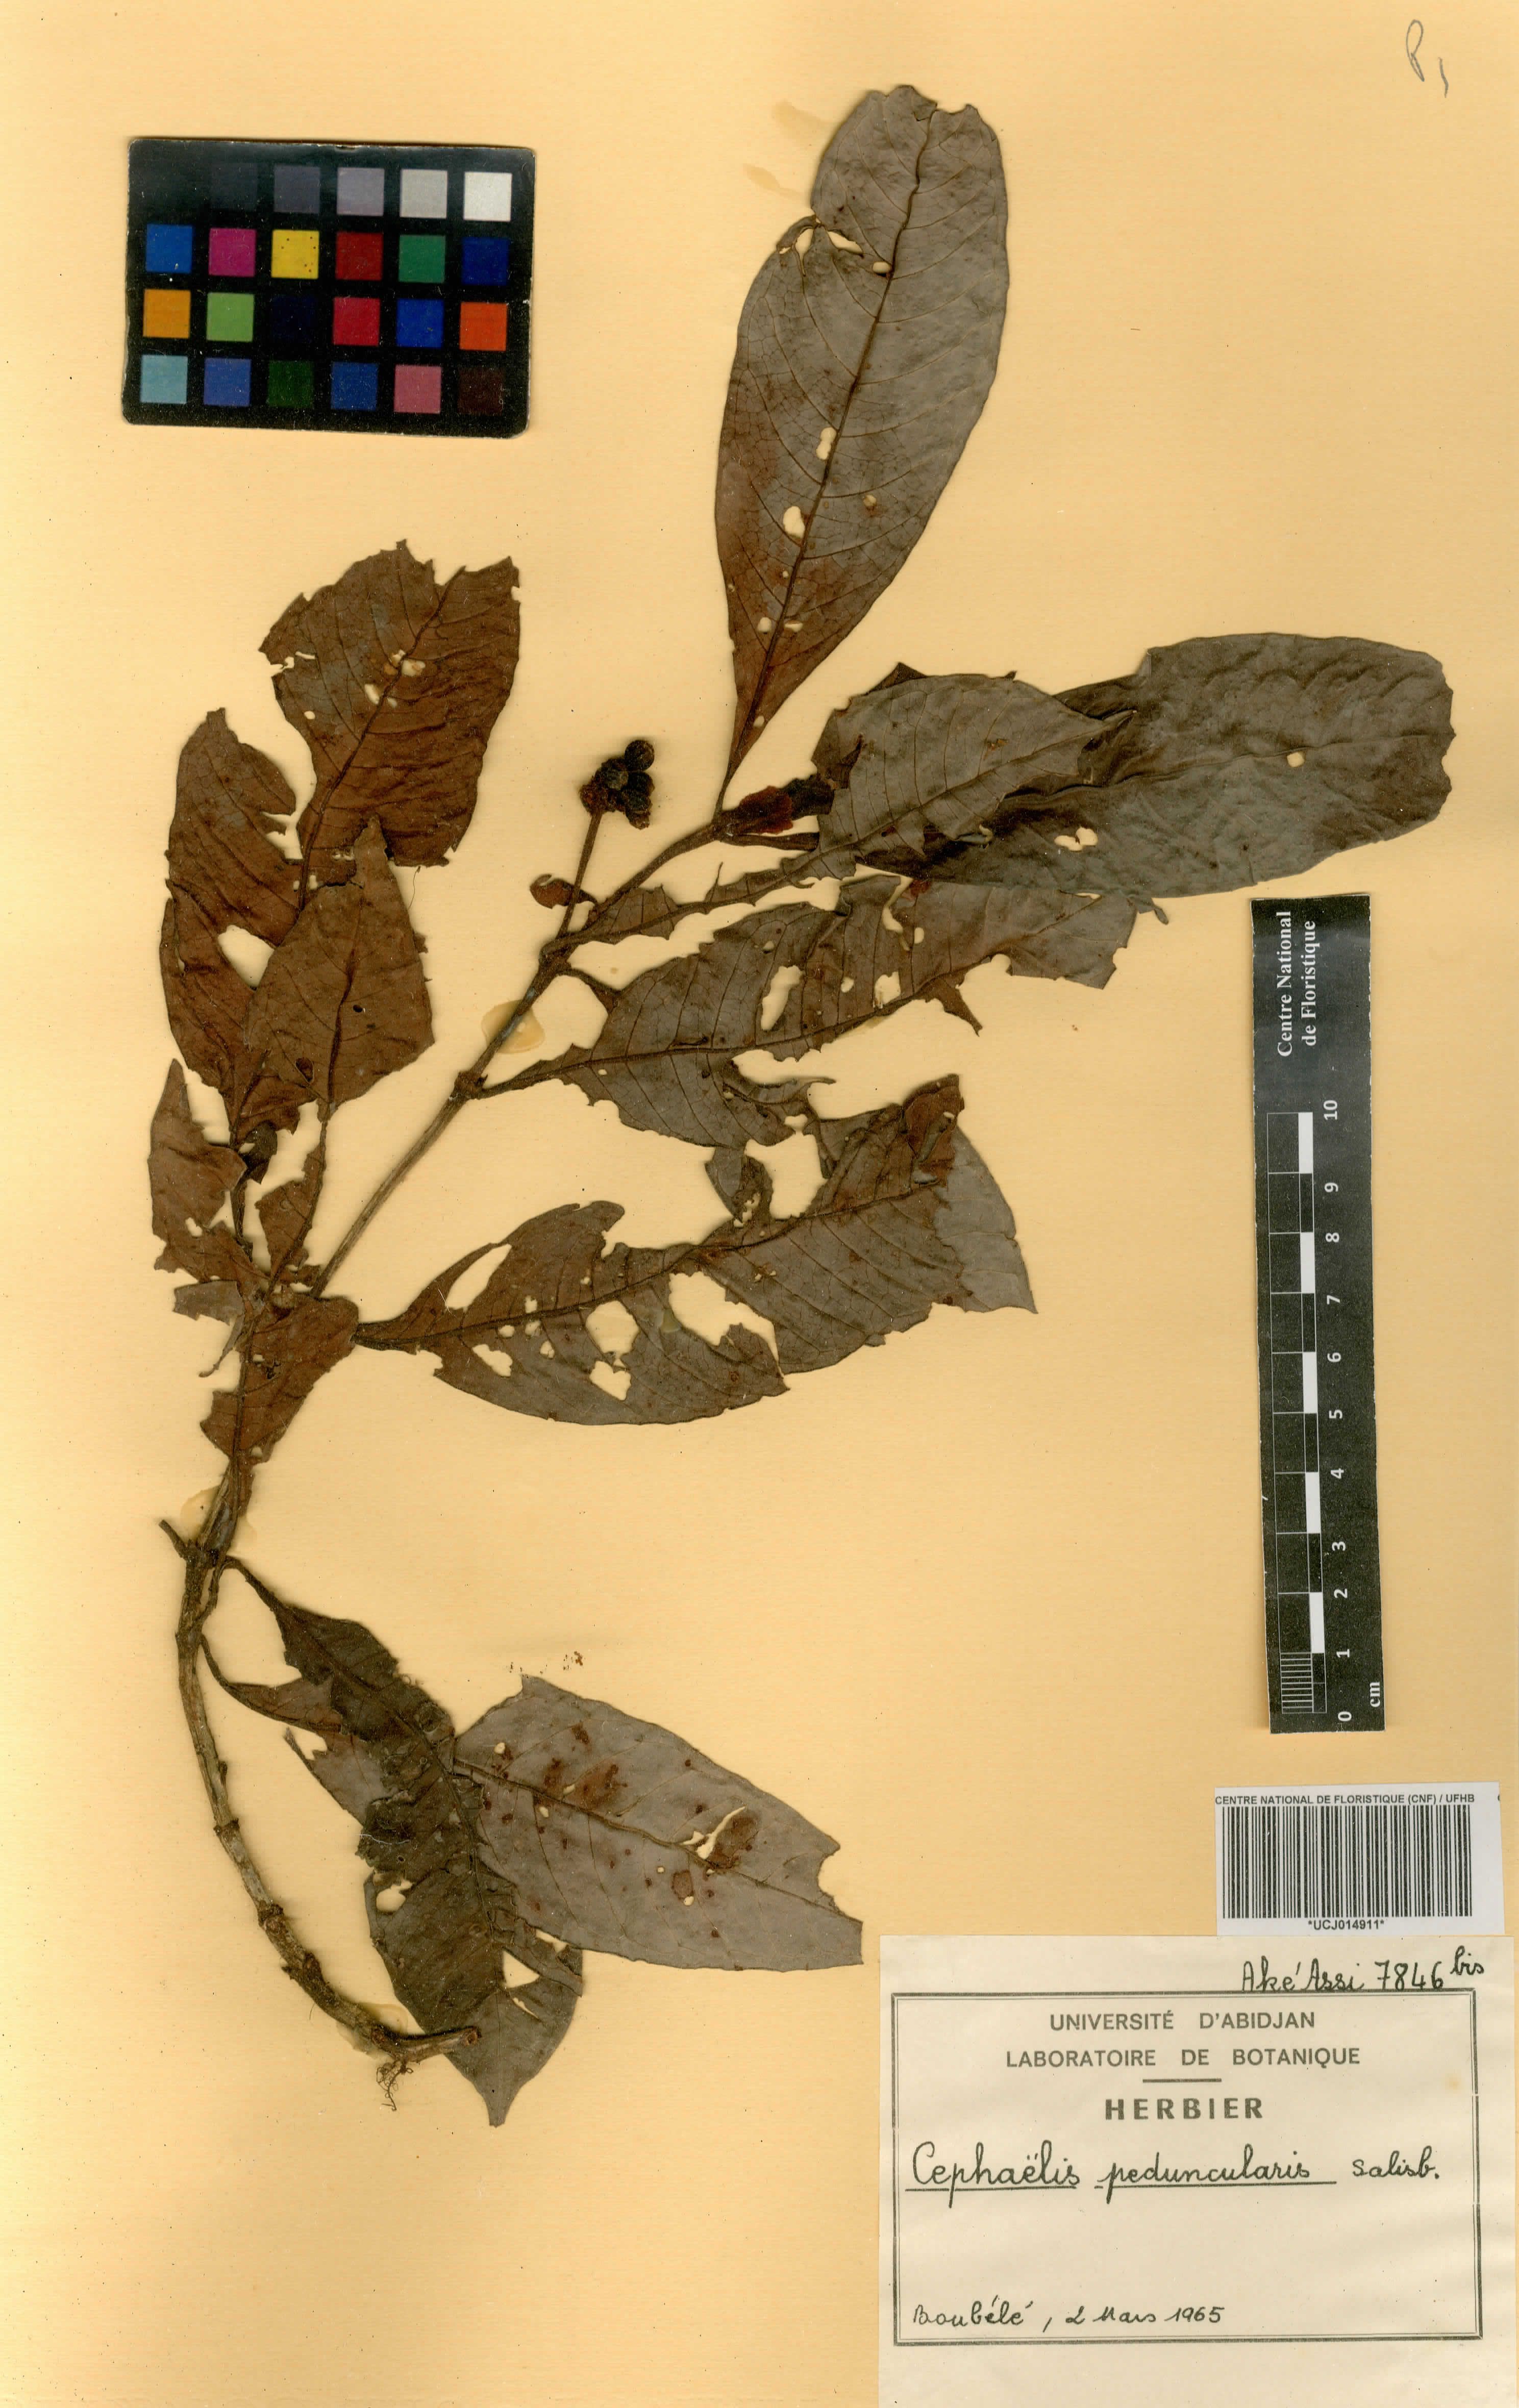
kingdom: Plantae
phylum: Tracheophyta
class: Magnoliopsida
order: Gentianales
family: Rubiaceae
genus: Psychotria
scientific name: Psychotria peduncularis
